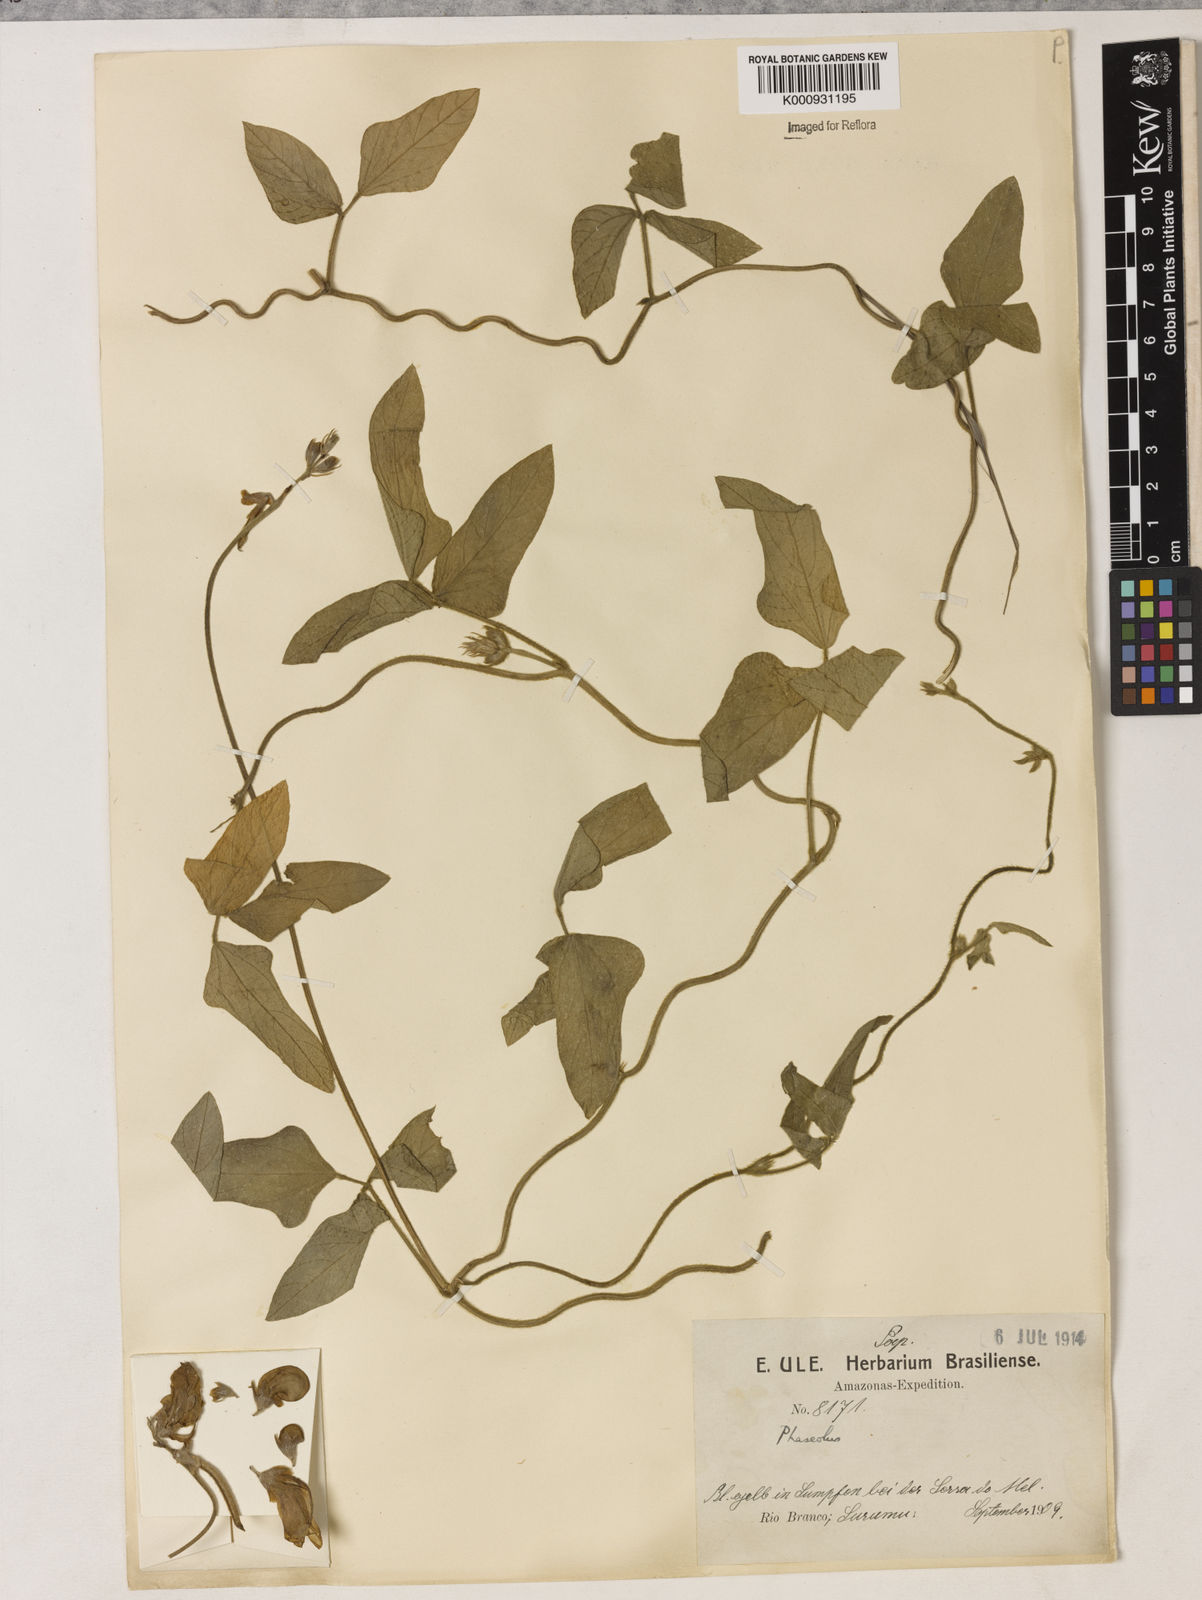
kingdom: Plantae
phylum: Tracheophyta
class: Magnoliopsida
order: Fabales
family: Fabaceae
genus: Vigna
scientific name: Vigna lasiocarpa
